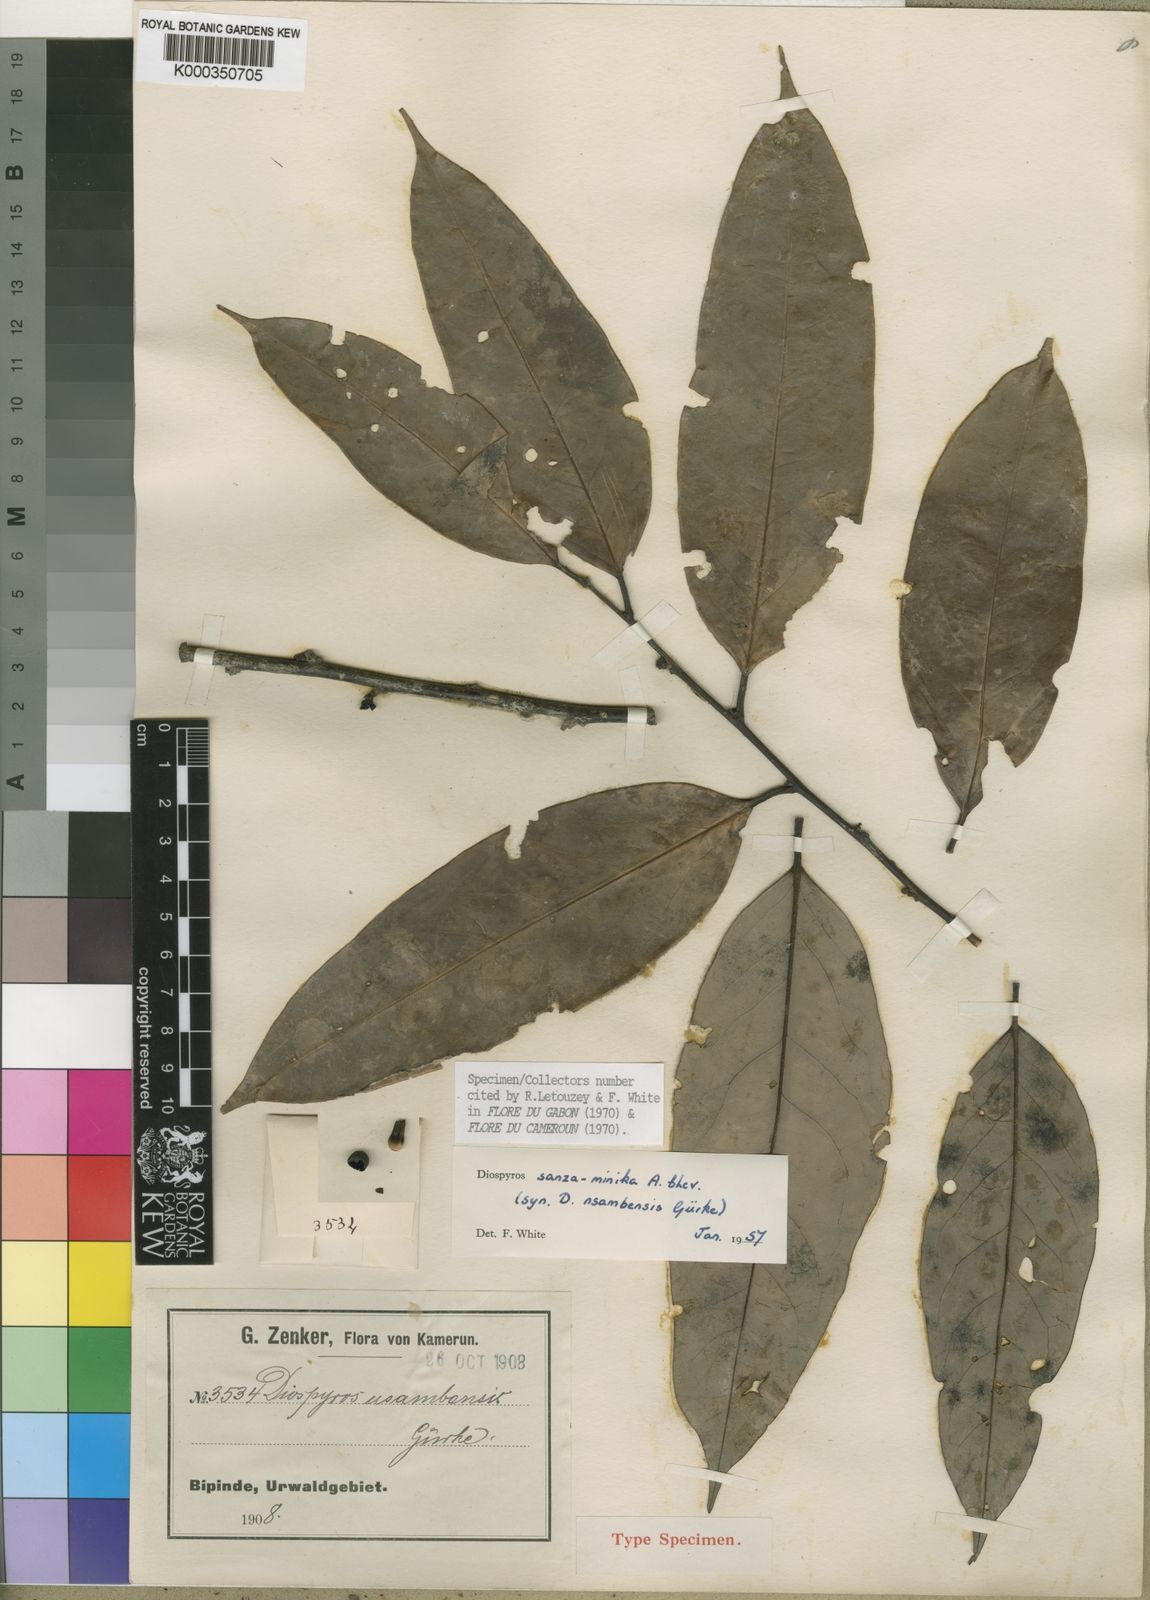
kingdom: Plantae
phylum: Tracheophyta
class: Magnoliopsida
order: Ericales
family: Ebenaceae
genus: Diospyros
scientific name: Diospyros sanza-minika
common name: Flint bark
